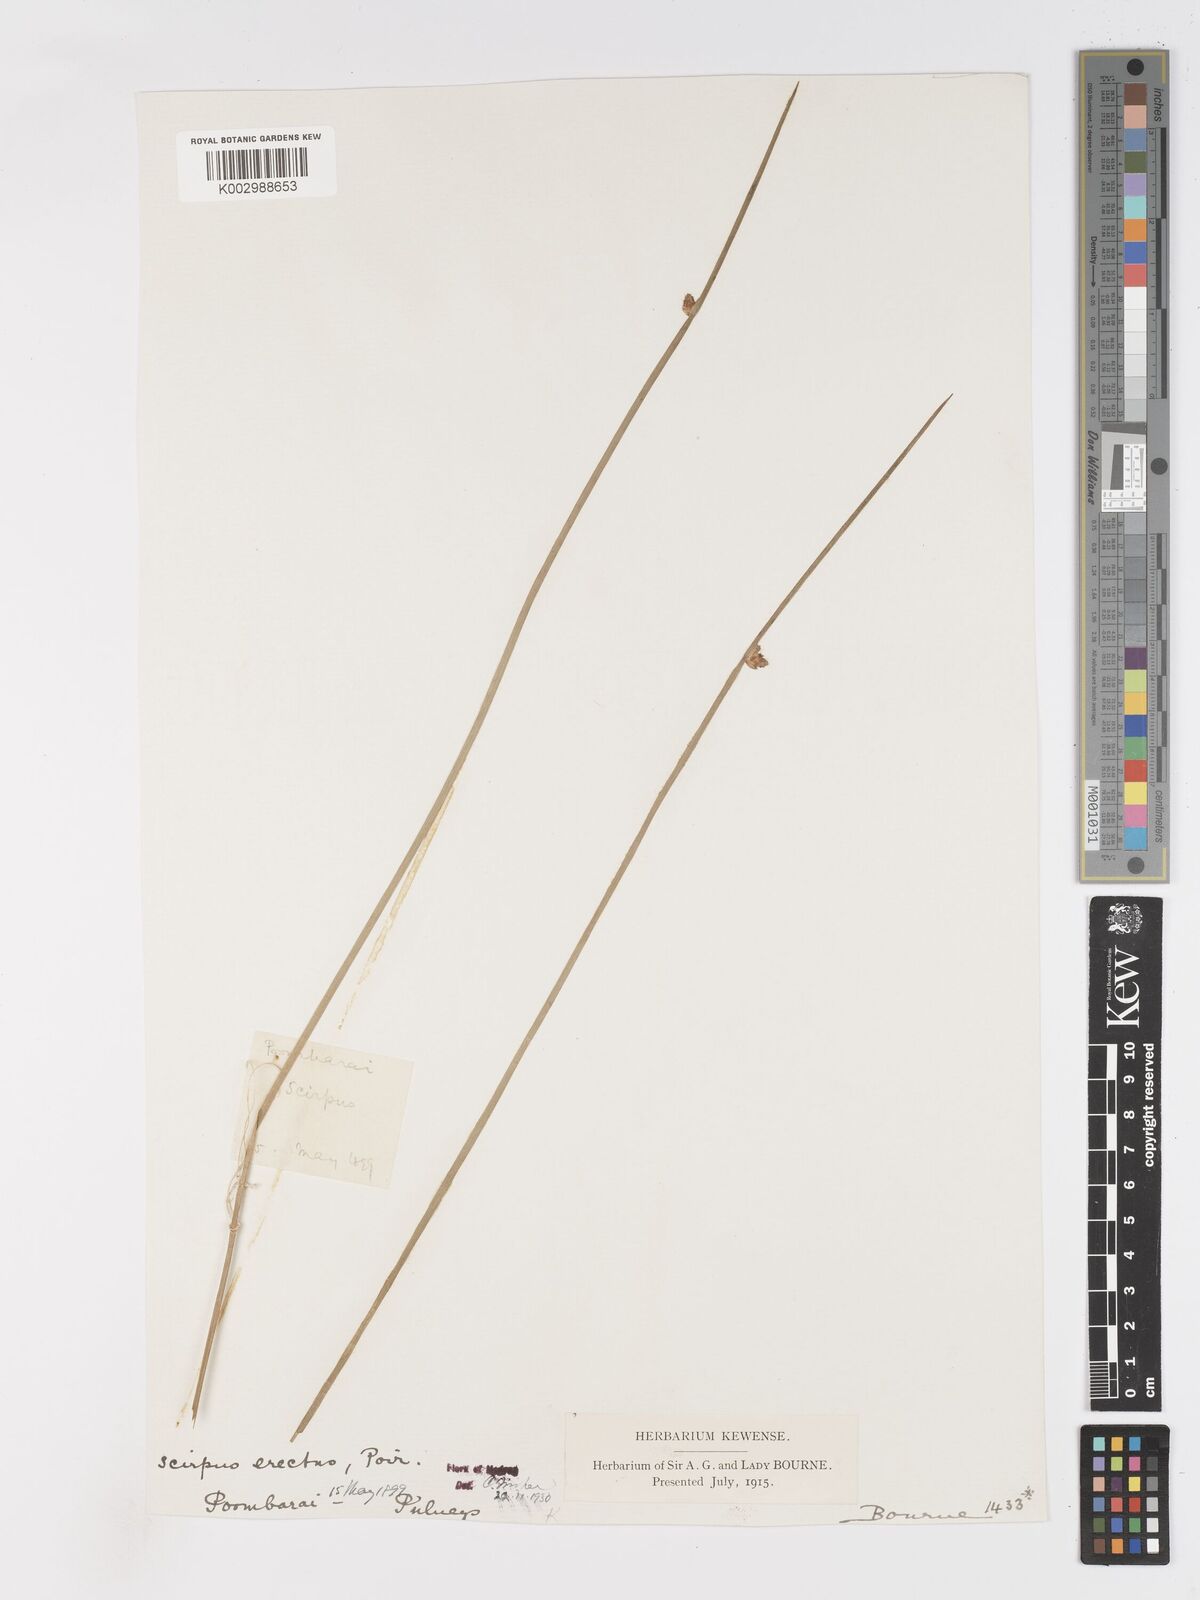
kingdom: Plantae
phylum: Tracheophyta
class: Liliopsida
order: Poales
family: Cyperaceae
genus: Schoenoplectiella
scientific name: Schoenoplectiella juncoides
